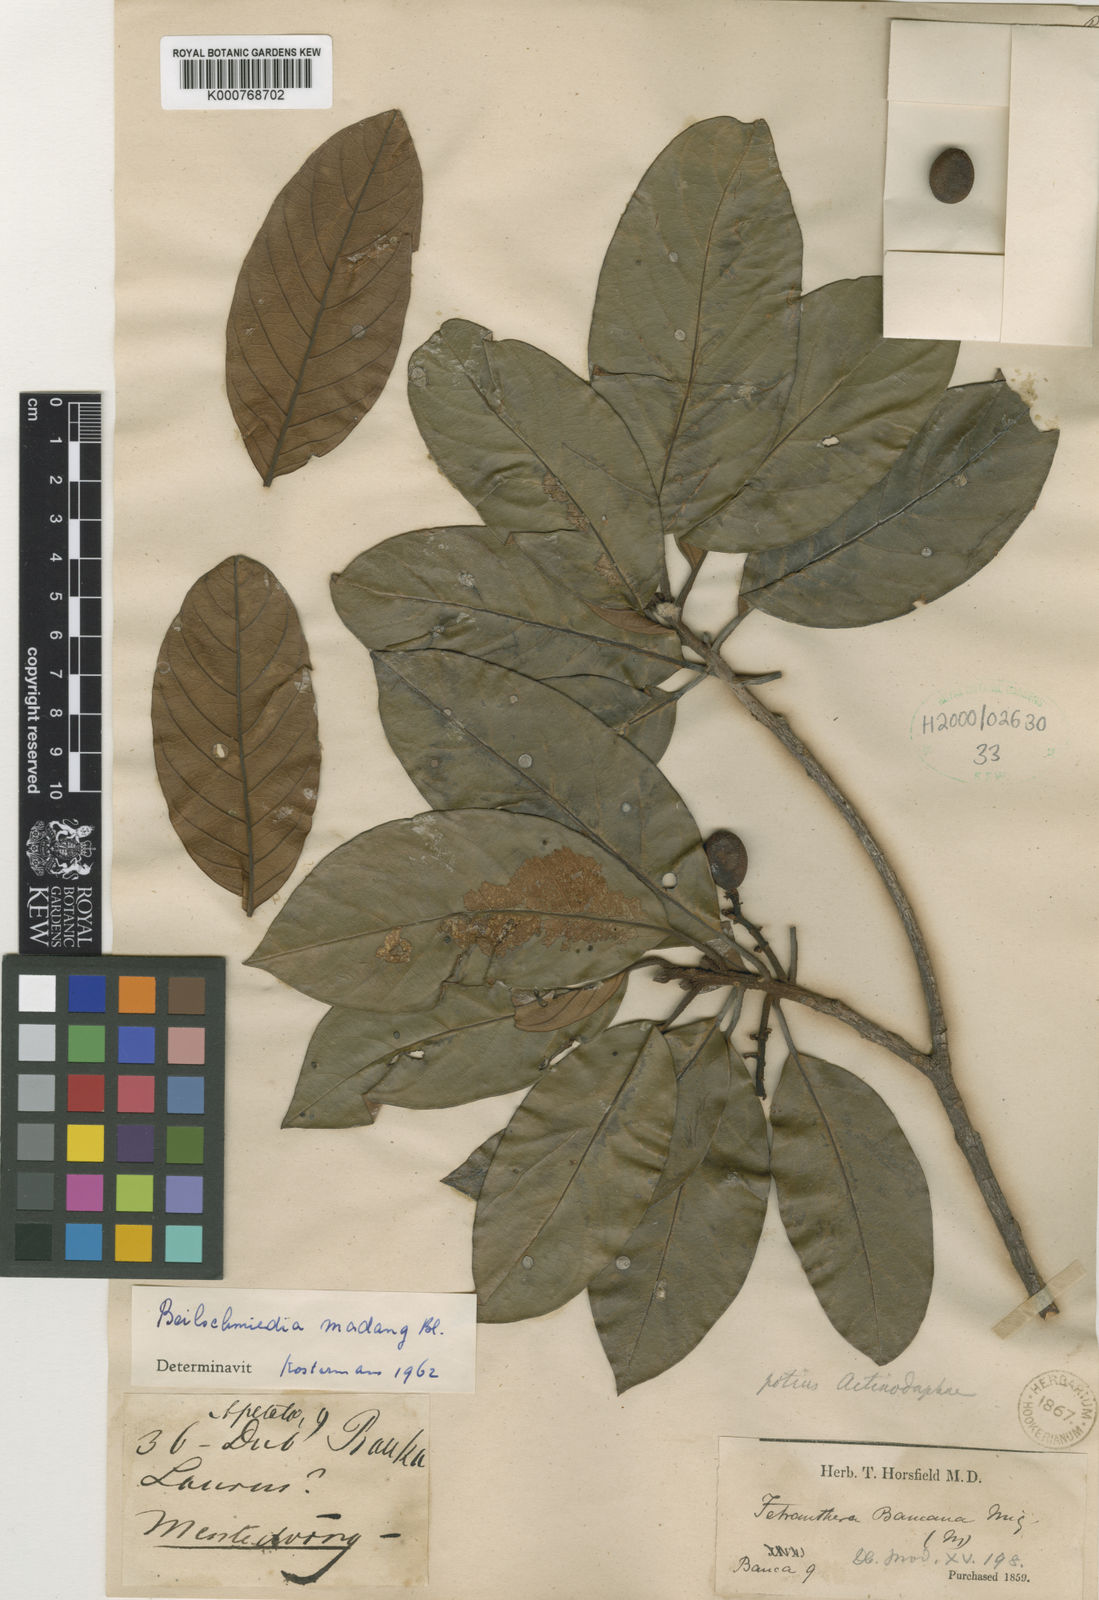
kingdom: Plantae
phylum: Tracheophyta
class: Magnoliopsida
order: Laurales
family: Lauraceae
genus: Beilschmiedia
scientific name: Beilschmiedia madang
